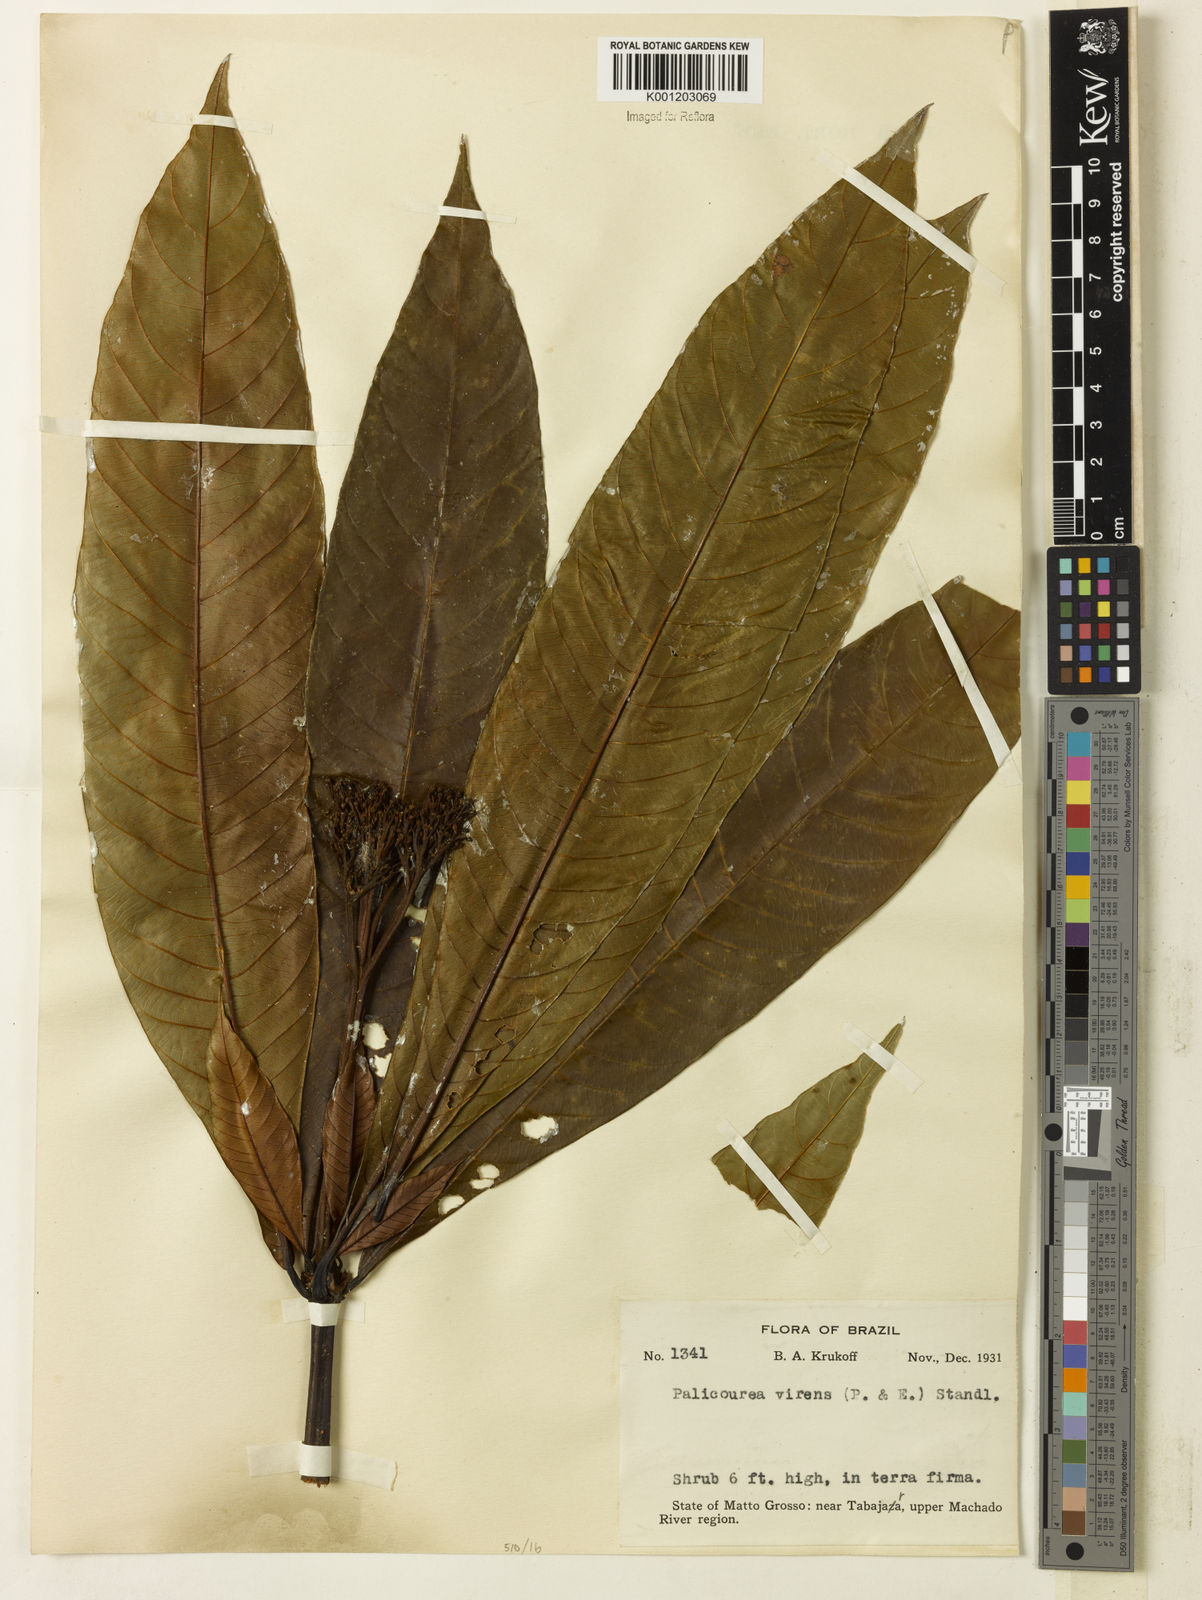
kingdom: Plantae
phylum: Tracheophyta
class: Magnoliopsida
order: Gentianales
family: Rubiaceae
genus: Palicourea
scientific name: Palicourea virens
